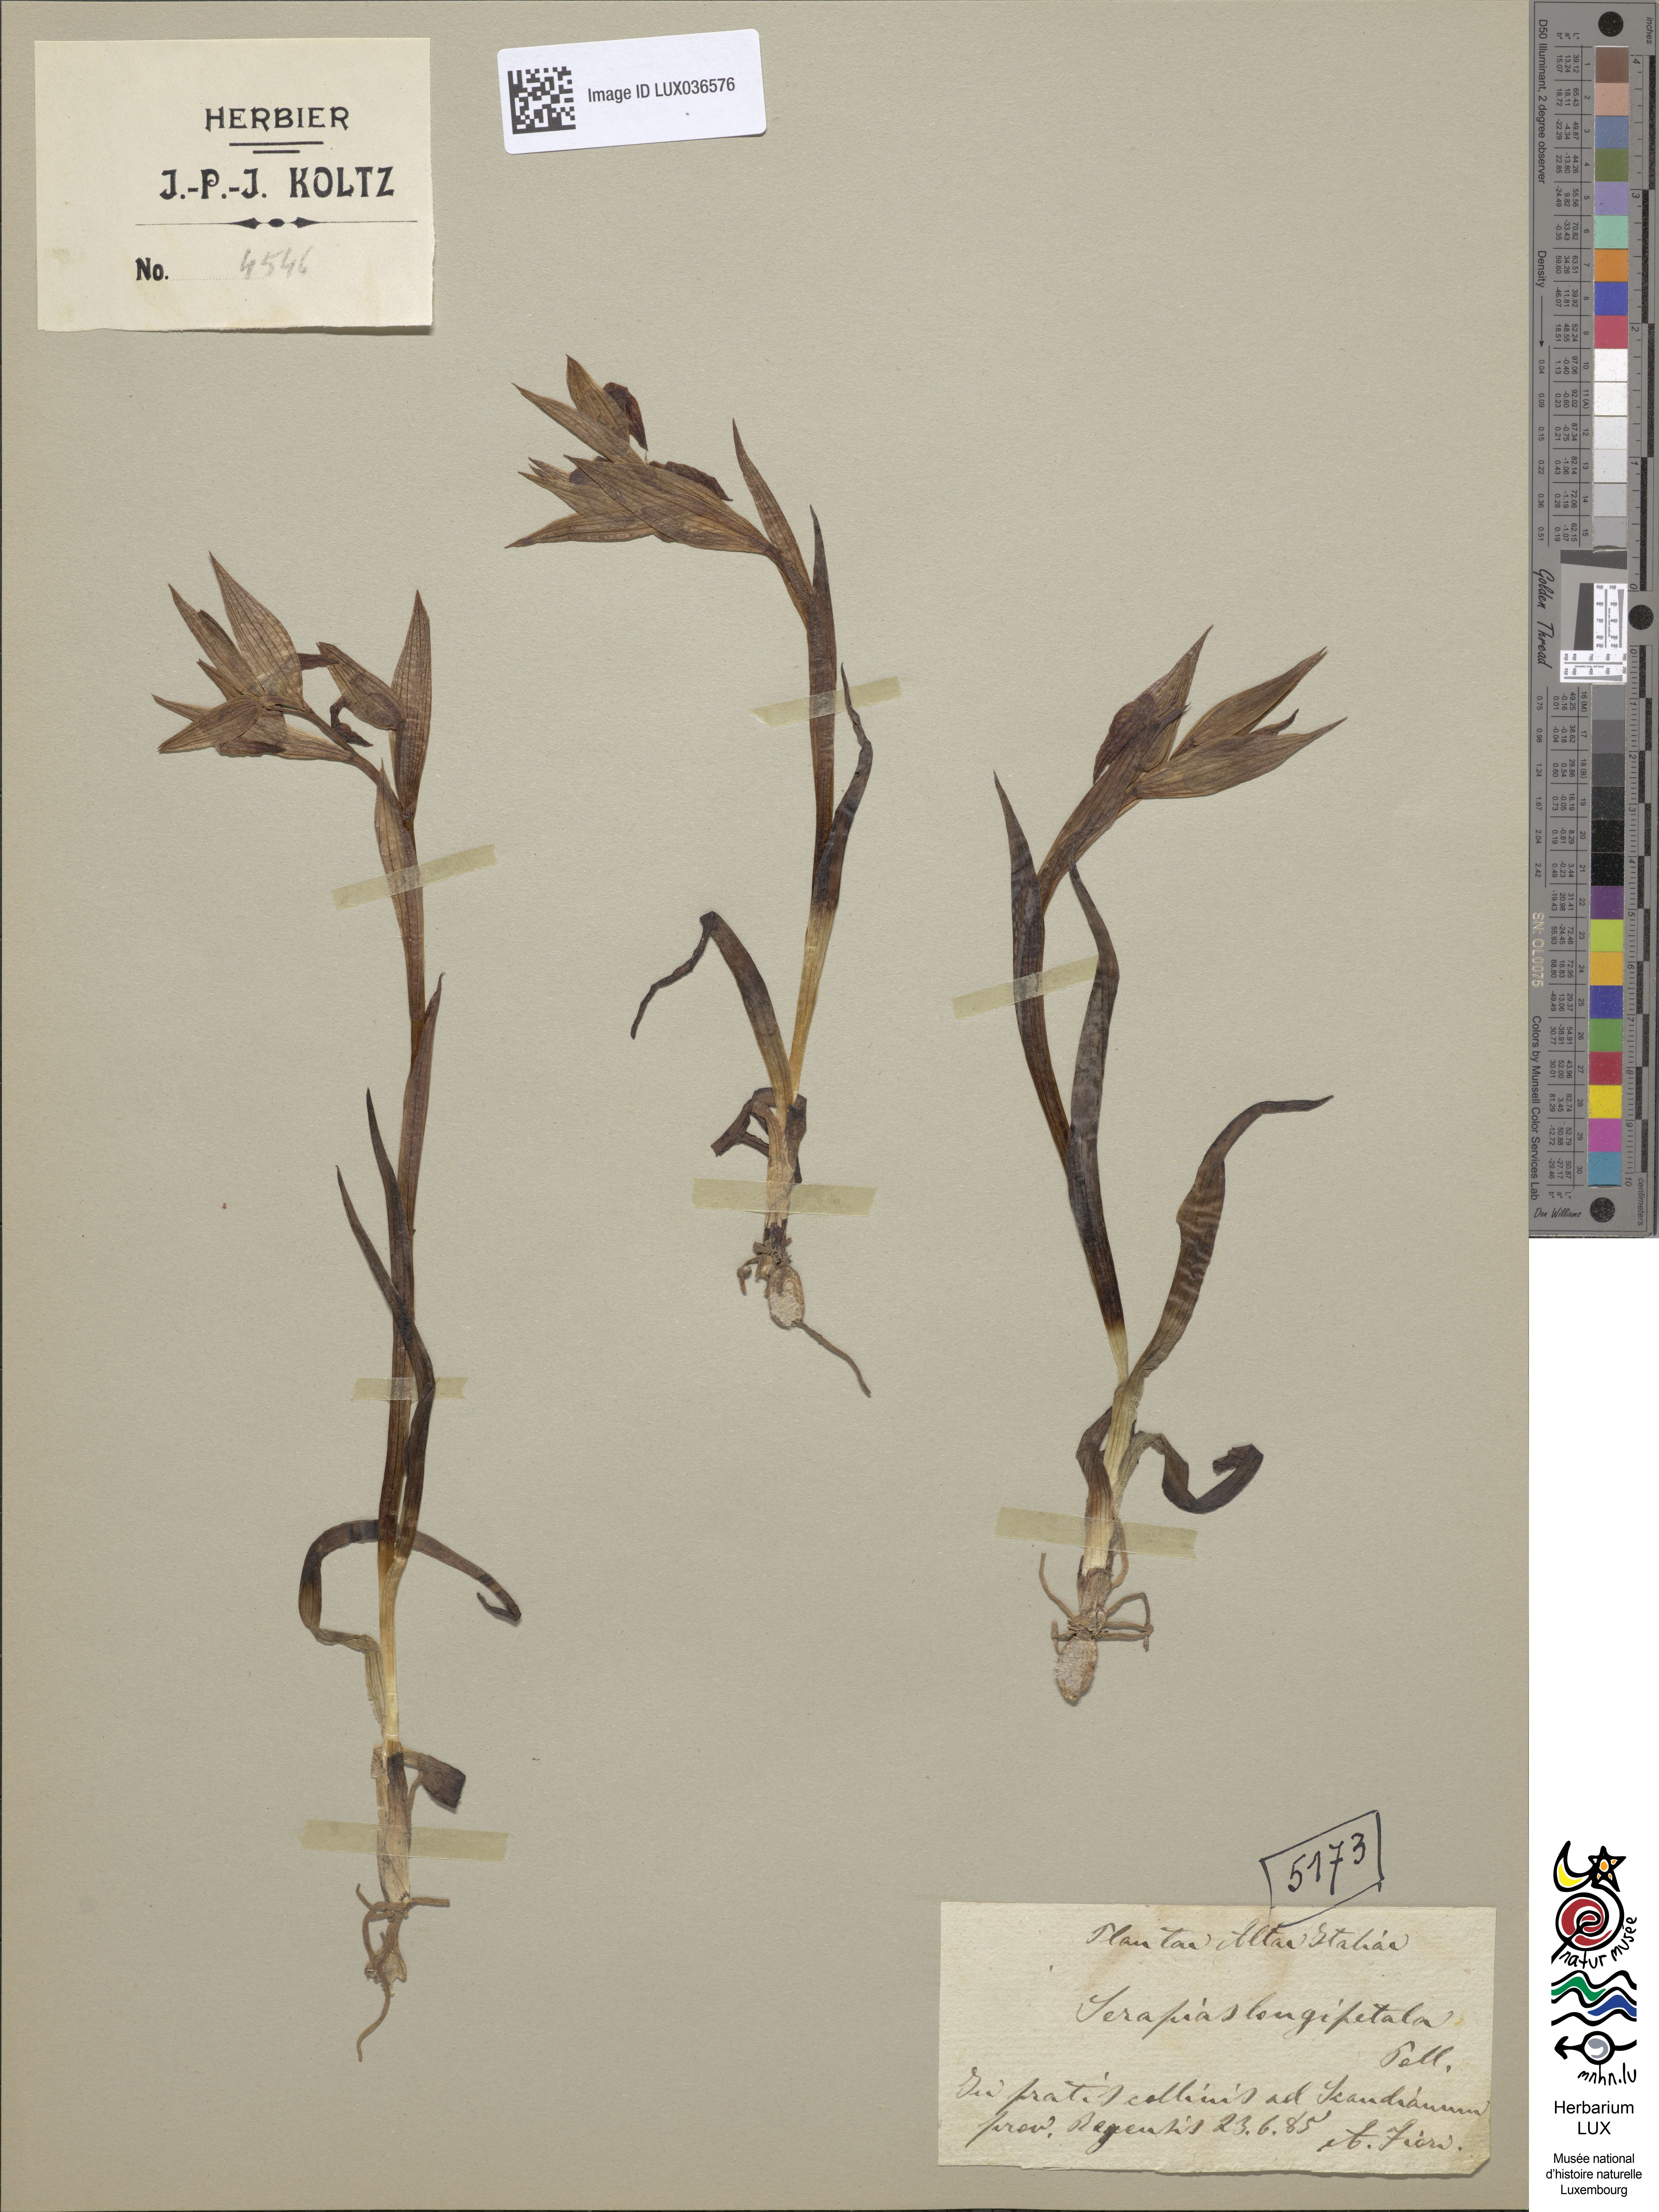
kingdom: Plantae
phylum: Tracheophyta
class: Liliopsida
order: Asparagales
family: Orchidaceae
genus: Serapias
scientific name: Serapias vomeracea
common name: Long-lipped tongue-orchid
